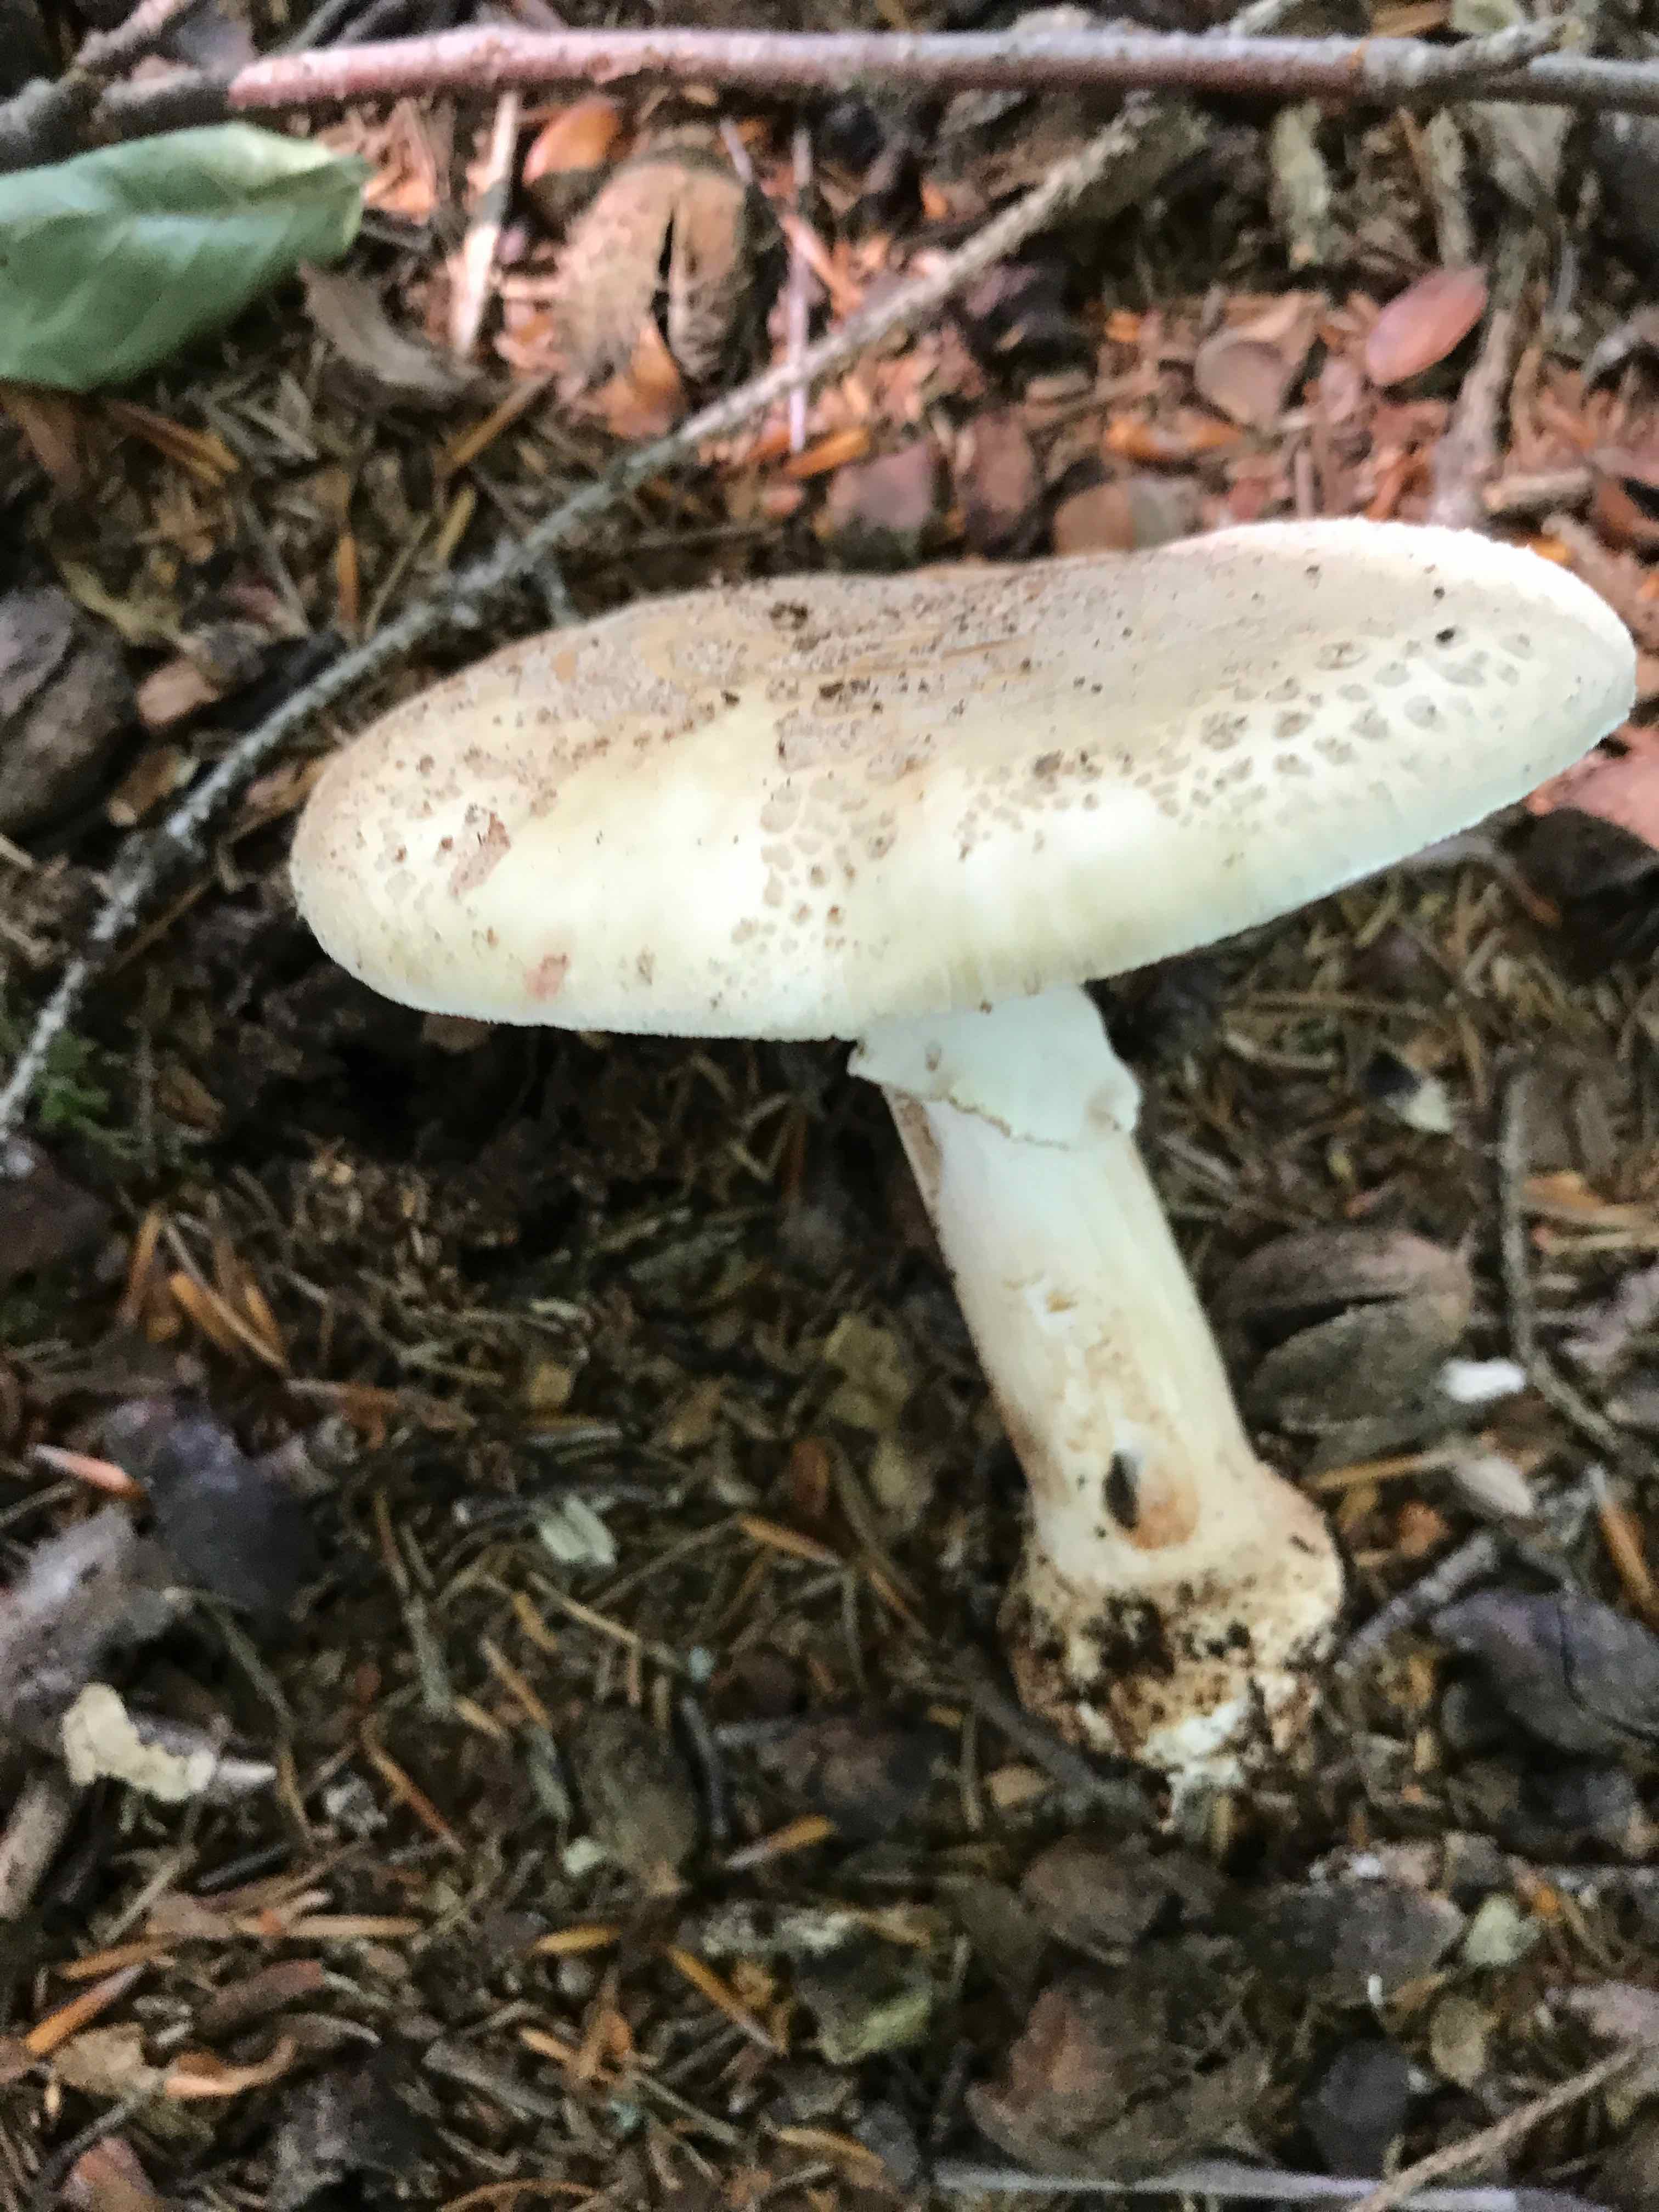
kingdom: Fungi
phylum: Basidiomycota
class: Agaricomycetes
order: Agaricales
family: Amanitaceae
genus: Amanita
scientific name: Amanita rubescens
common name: rødmende fluesvamp
